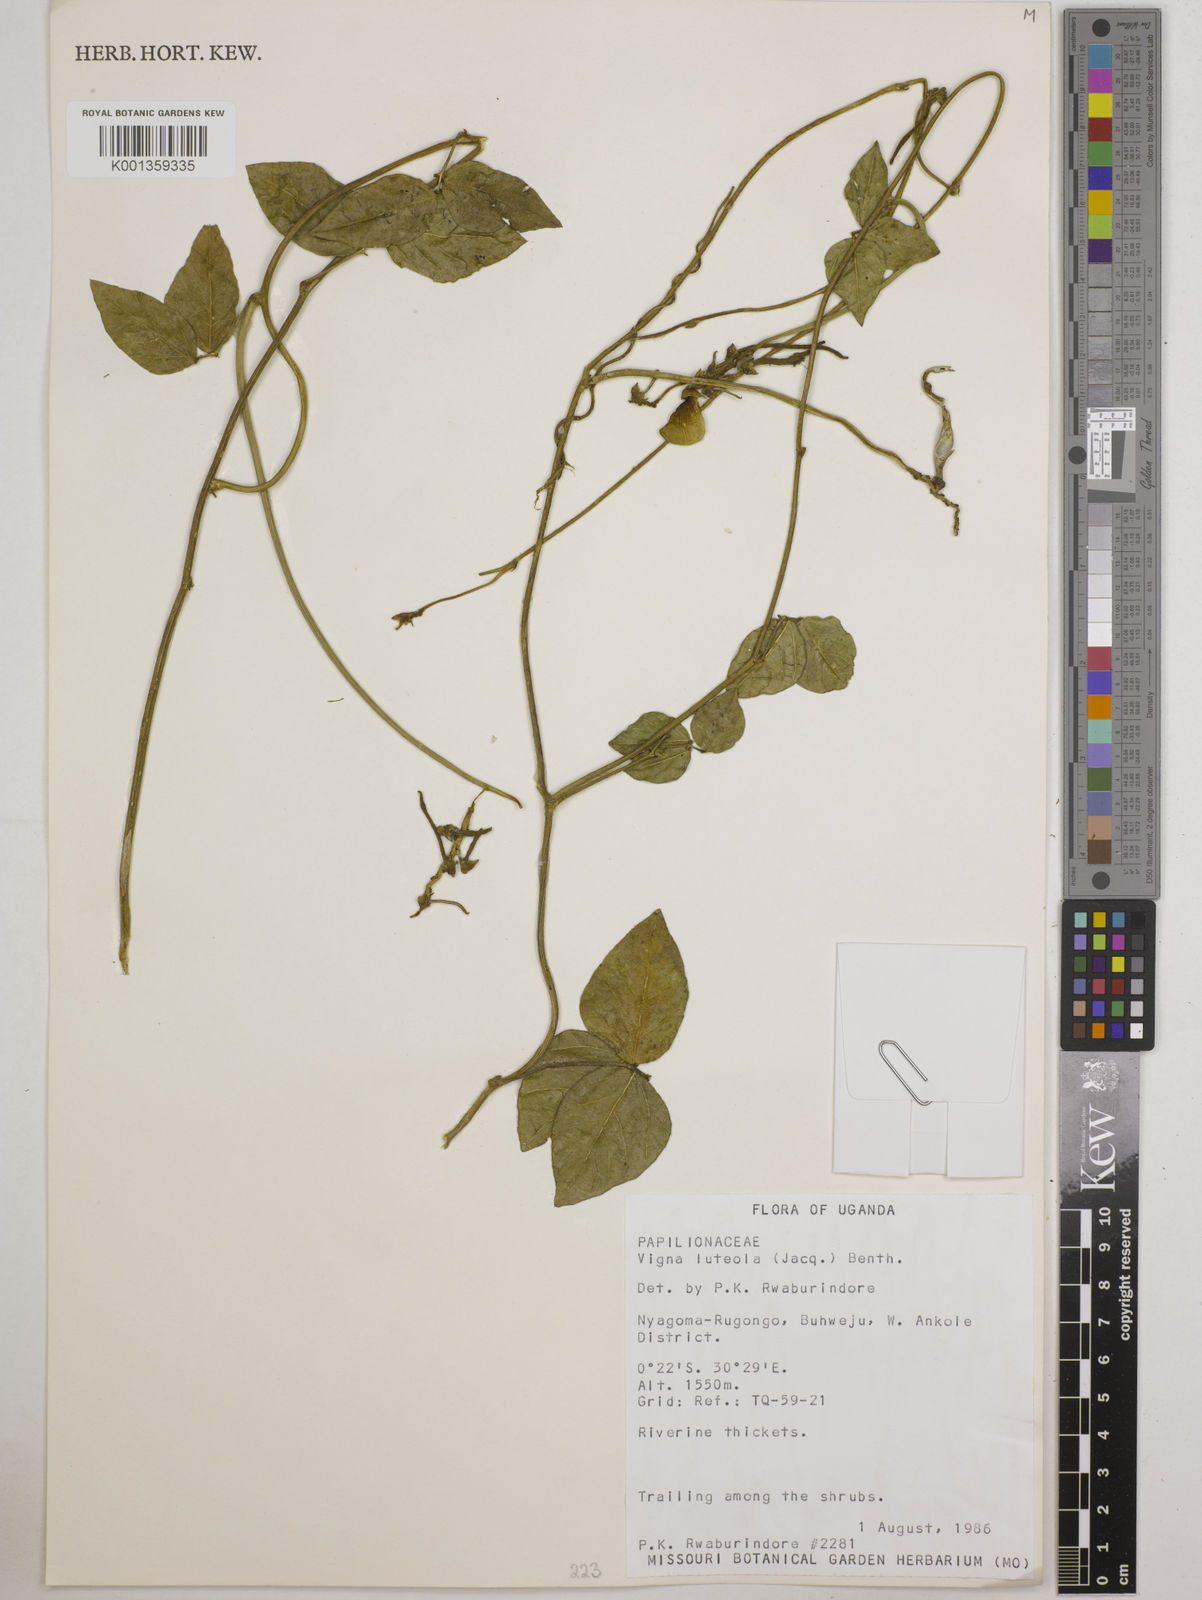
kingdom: Plantae
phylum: Tracheophyta
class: Magnoliopsida
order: Fabales
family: Fabaceae
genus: Vigna
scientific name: Vigna luteola
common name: Hairypod cowpea
